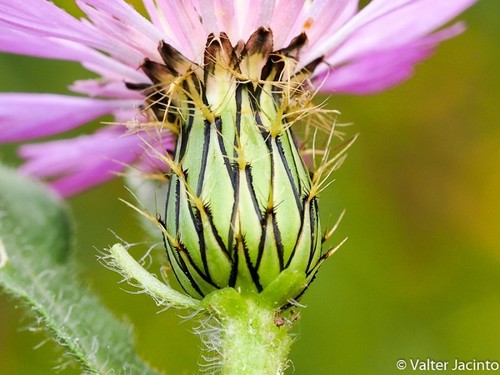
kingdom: Plantae
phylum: Tracheophyta
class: Magnoliopsida
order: Asterales
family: Asteraceae
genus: Centaurea
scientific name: Centaurea pullata
